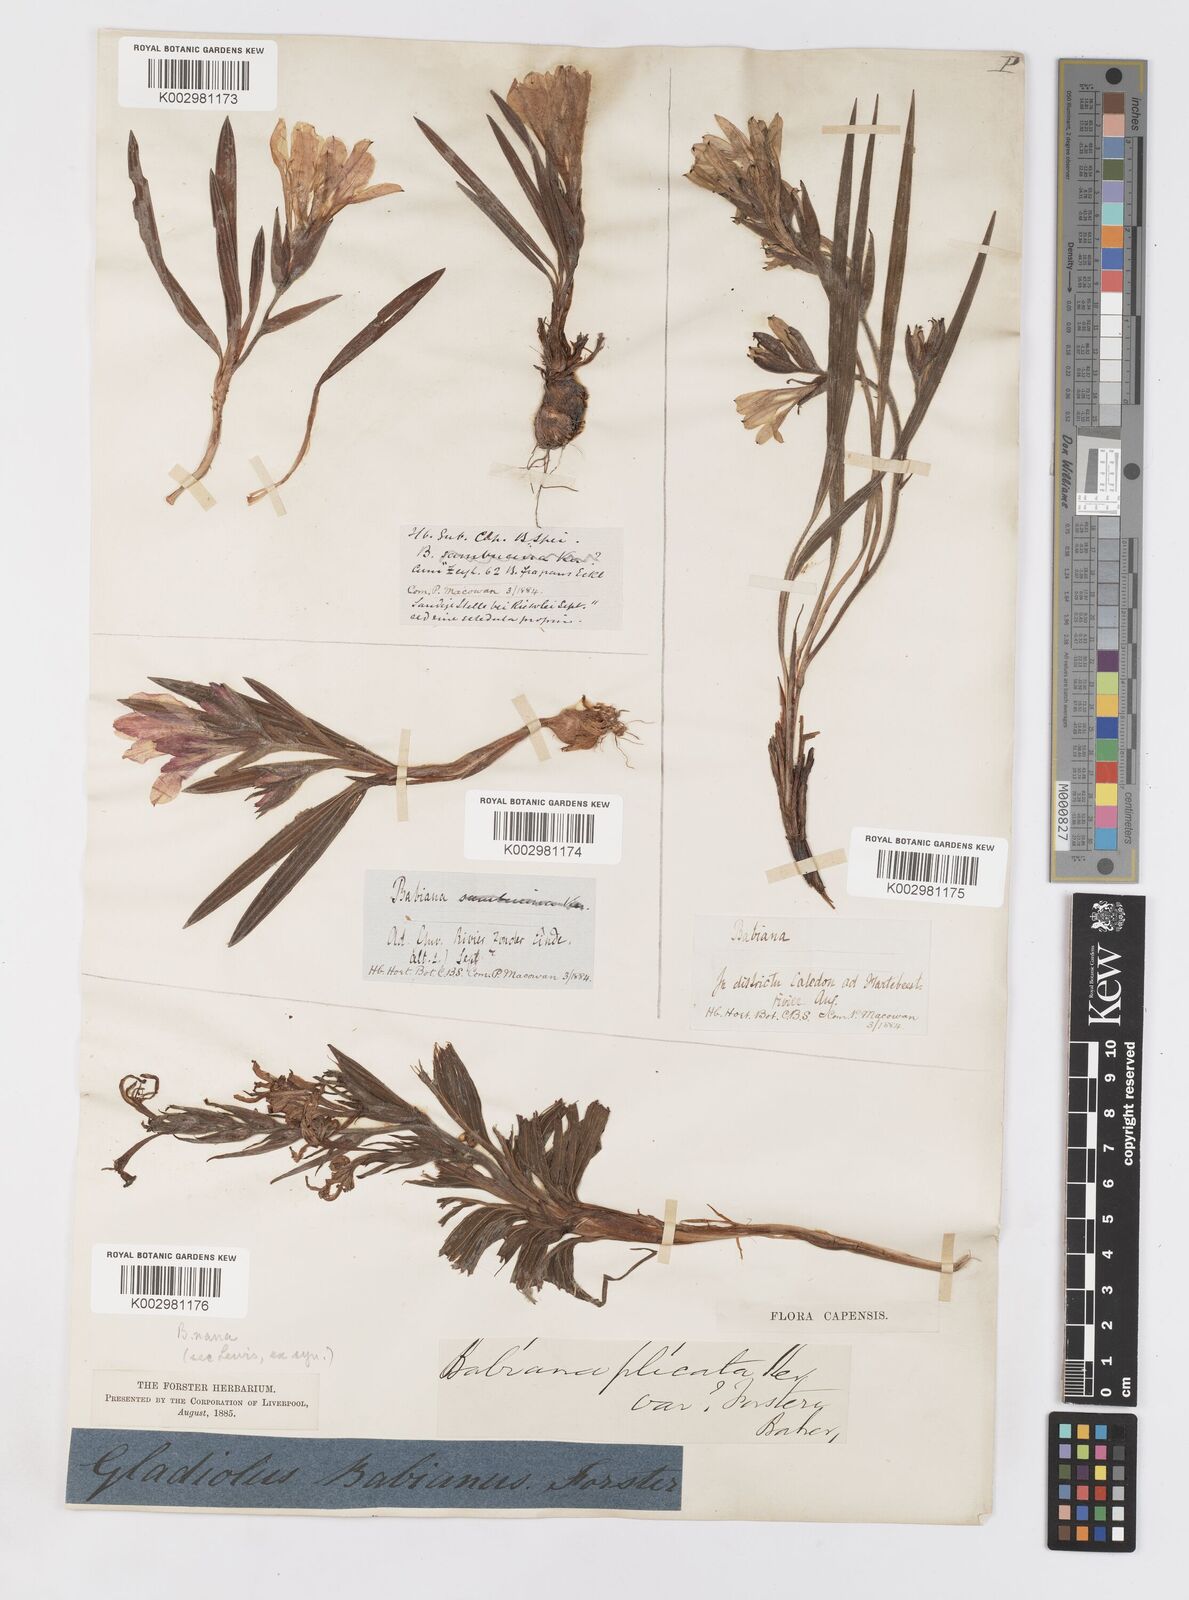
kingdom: Plantae
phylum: Tracheophyta
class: Liliopsida
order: Asparagales
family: Iridaceae
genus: Babiana
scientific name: Babiana fragrans
